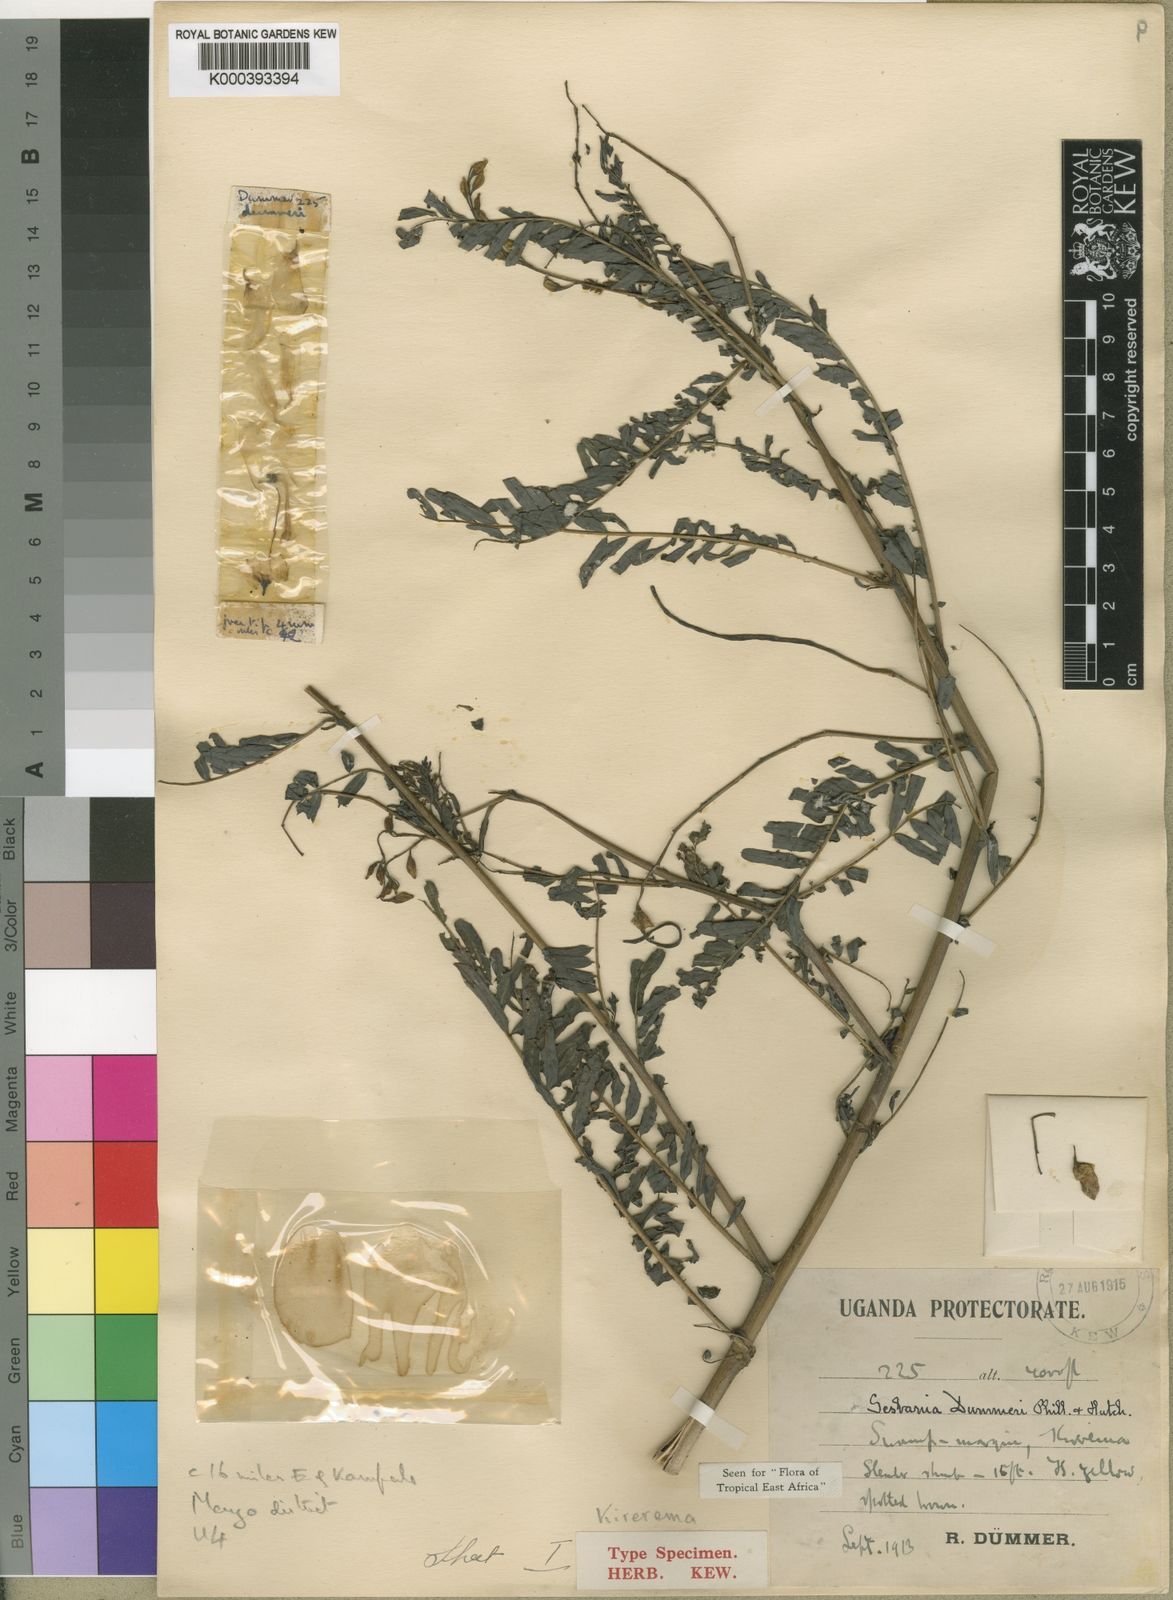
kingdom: Plantae
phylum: Tracheophyta
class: Magnoliopsida
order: Fabales
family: Fabaceae
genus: Sesbania
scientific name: Sesbania dummeri
